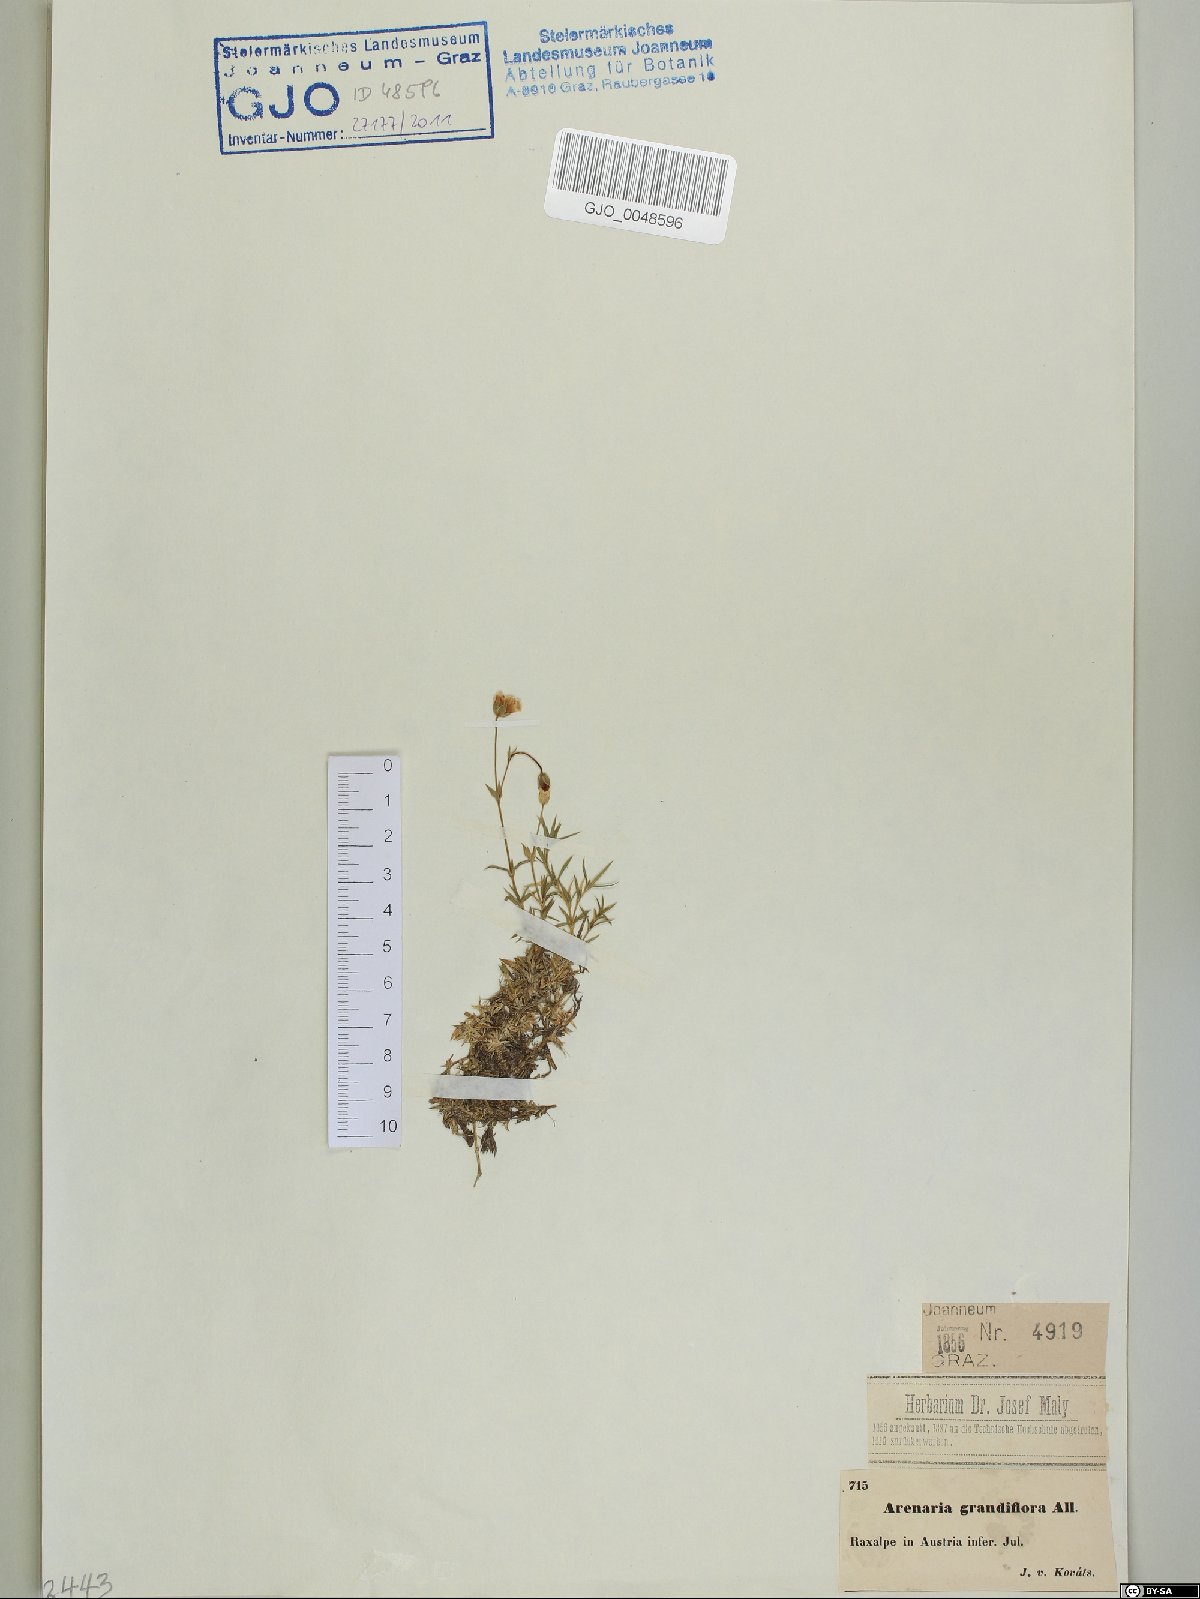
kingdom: Plantae
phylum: Tracheophyta
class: Magnoliopsida
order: Caryophyllales
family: Caryophyllaceae
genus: Arenaria
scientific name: Arenaria grandiflora
